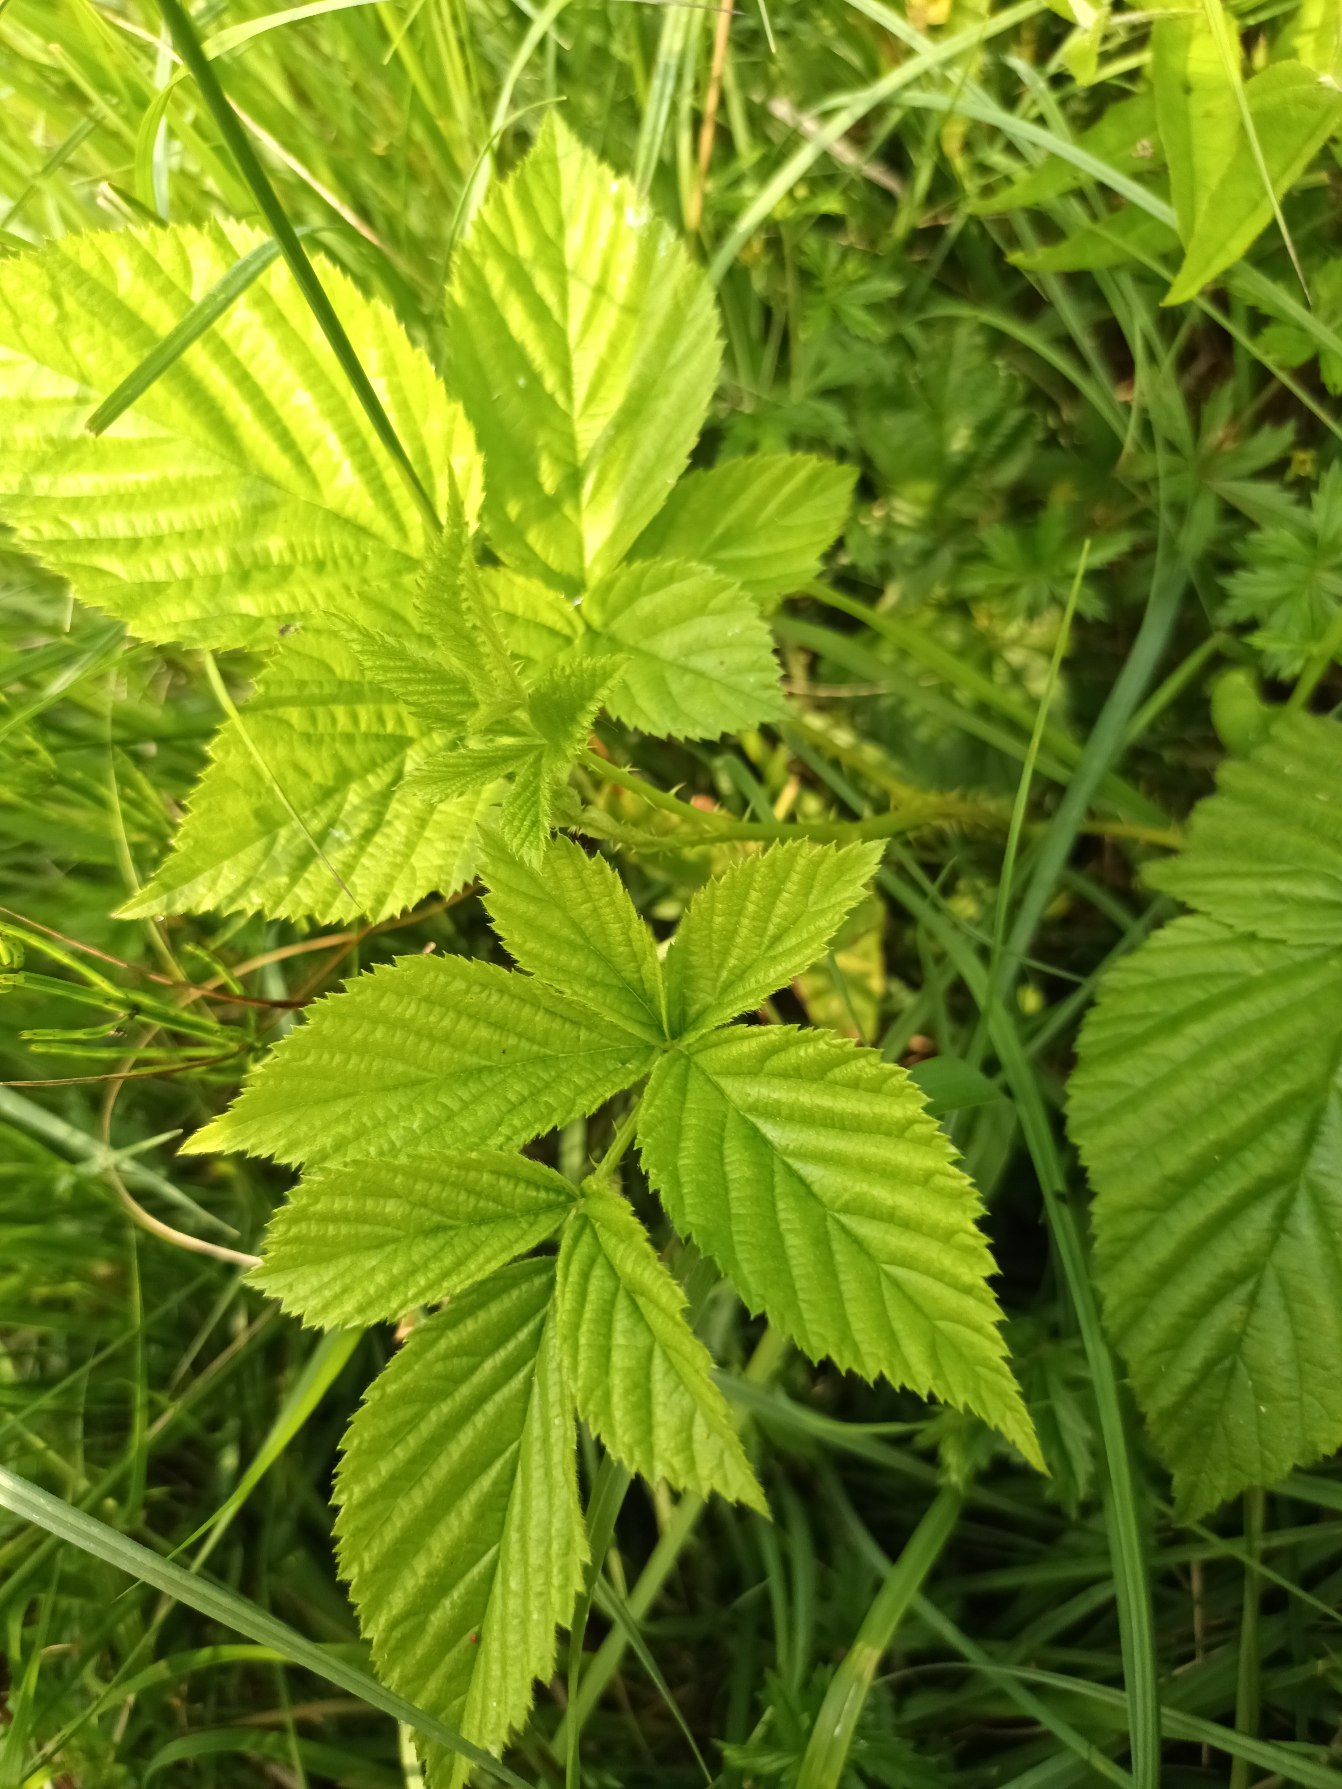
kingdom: Plantae
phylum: Tracheophyta
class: Magnoliopsida
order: Rosales
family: Rosaceae
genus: Rubus
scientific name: Rubus scissus
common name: Syl-brombær
